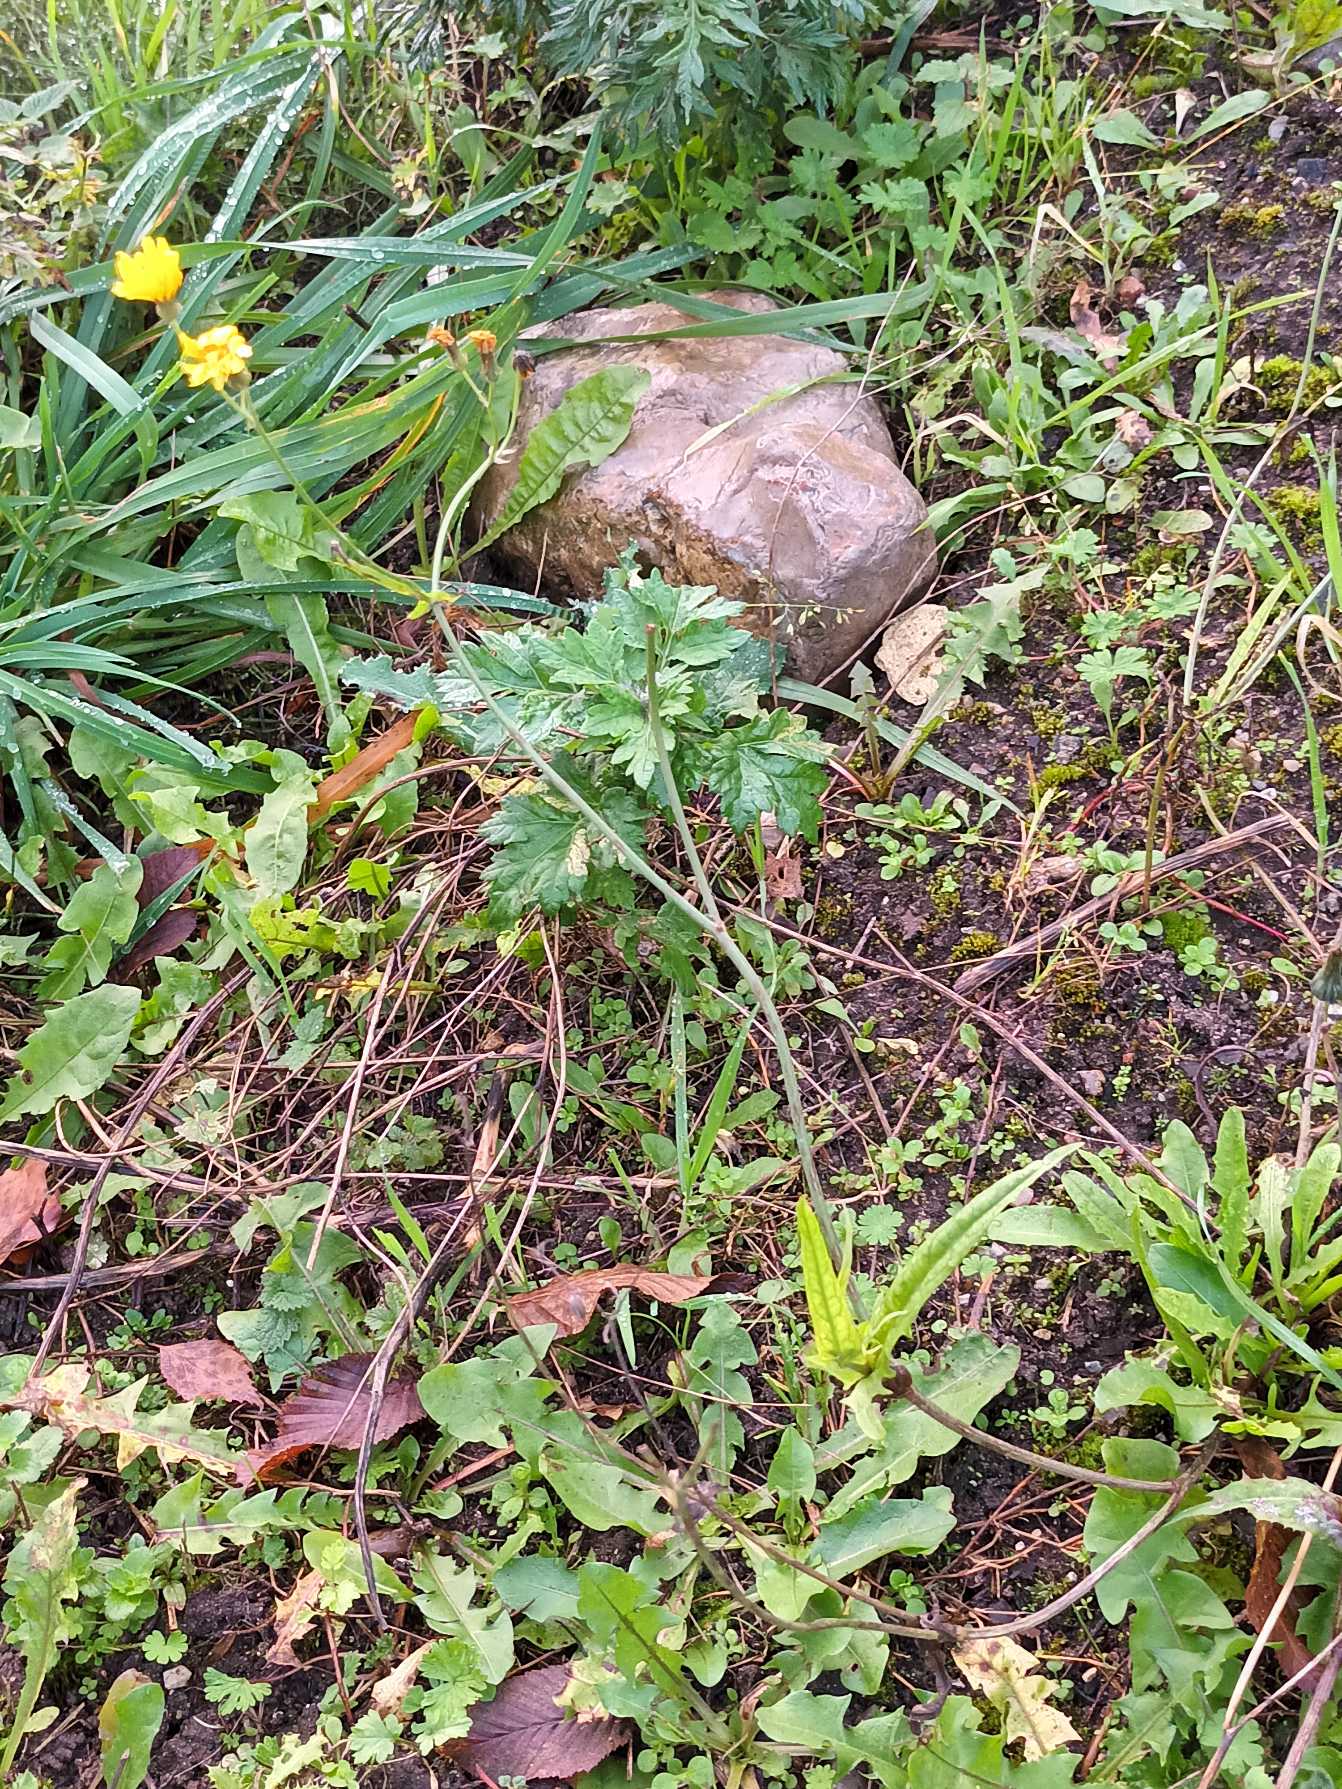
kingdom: Plantae
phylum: Tracheophyta
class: Magnoliopsida
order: Asterales
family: Asteraceae
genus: Crepis
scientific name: Crepis capillaris
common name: Grøn høgeskæg
